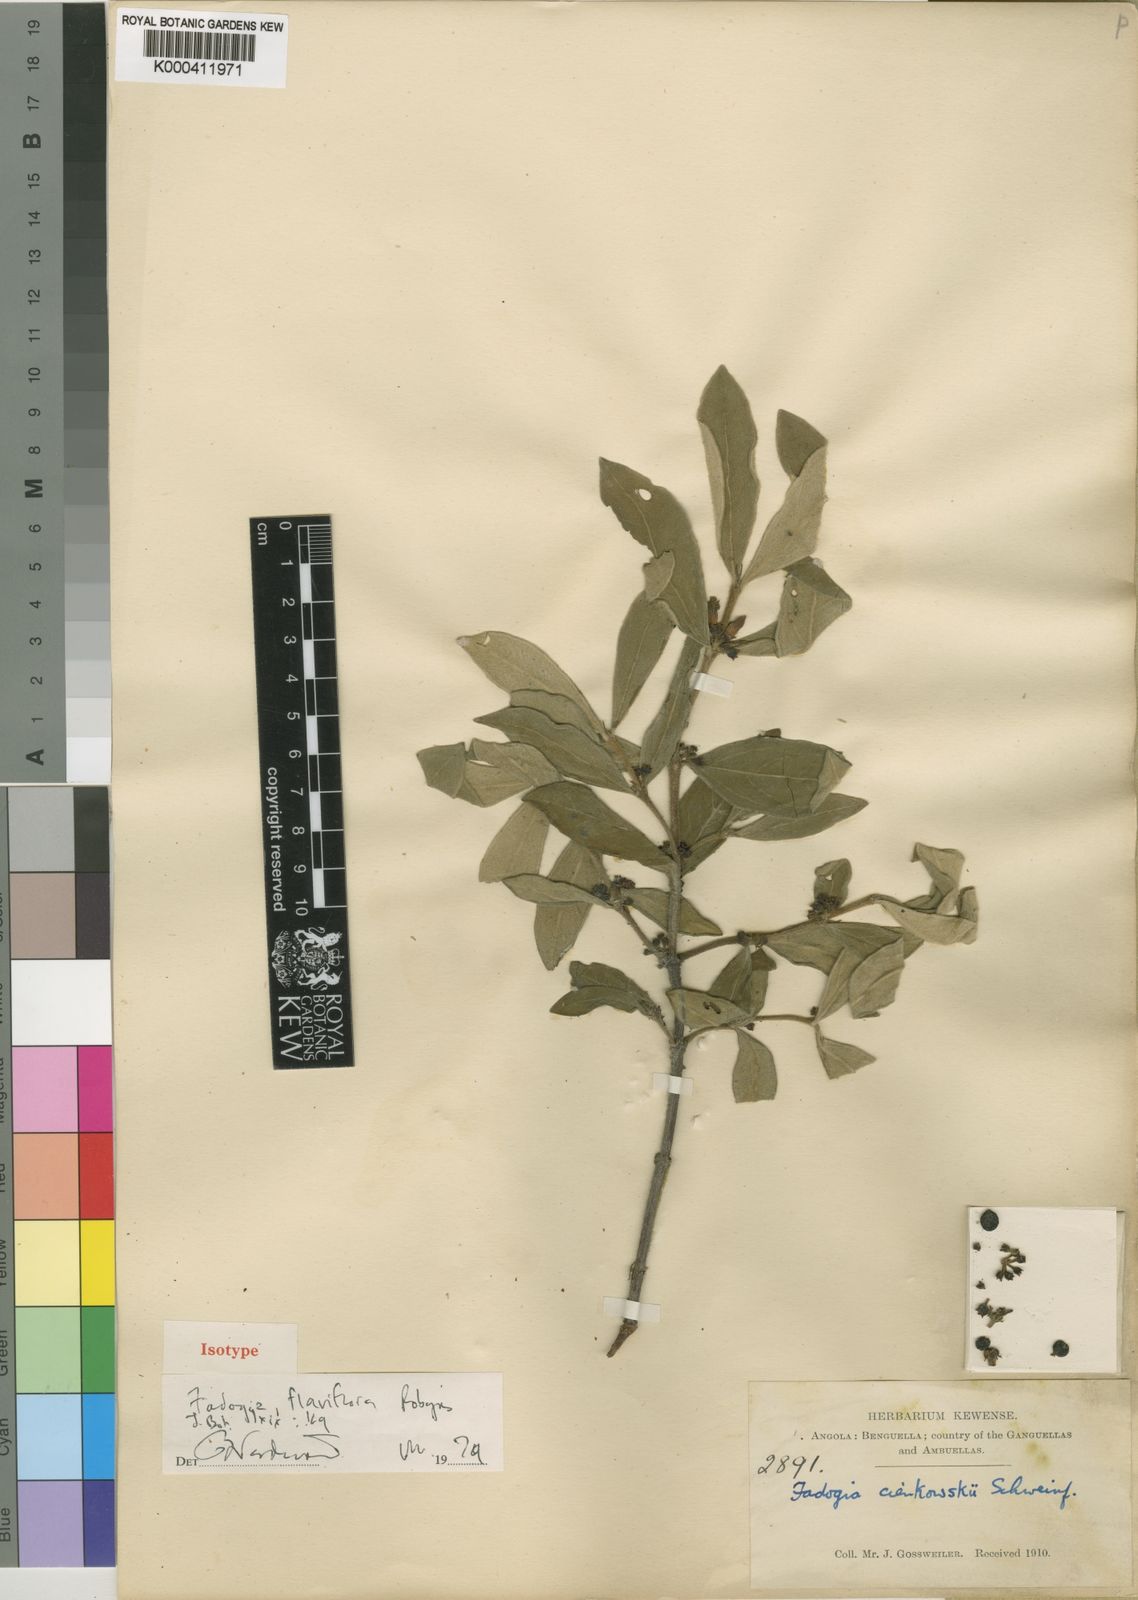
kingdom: Plantae
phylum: Tracheophyta
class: Magnoliopsida
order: Gentianales
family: Rubiaceae
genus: Fadogia
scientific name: Fadogia tomentosa
